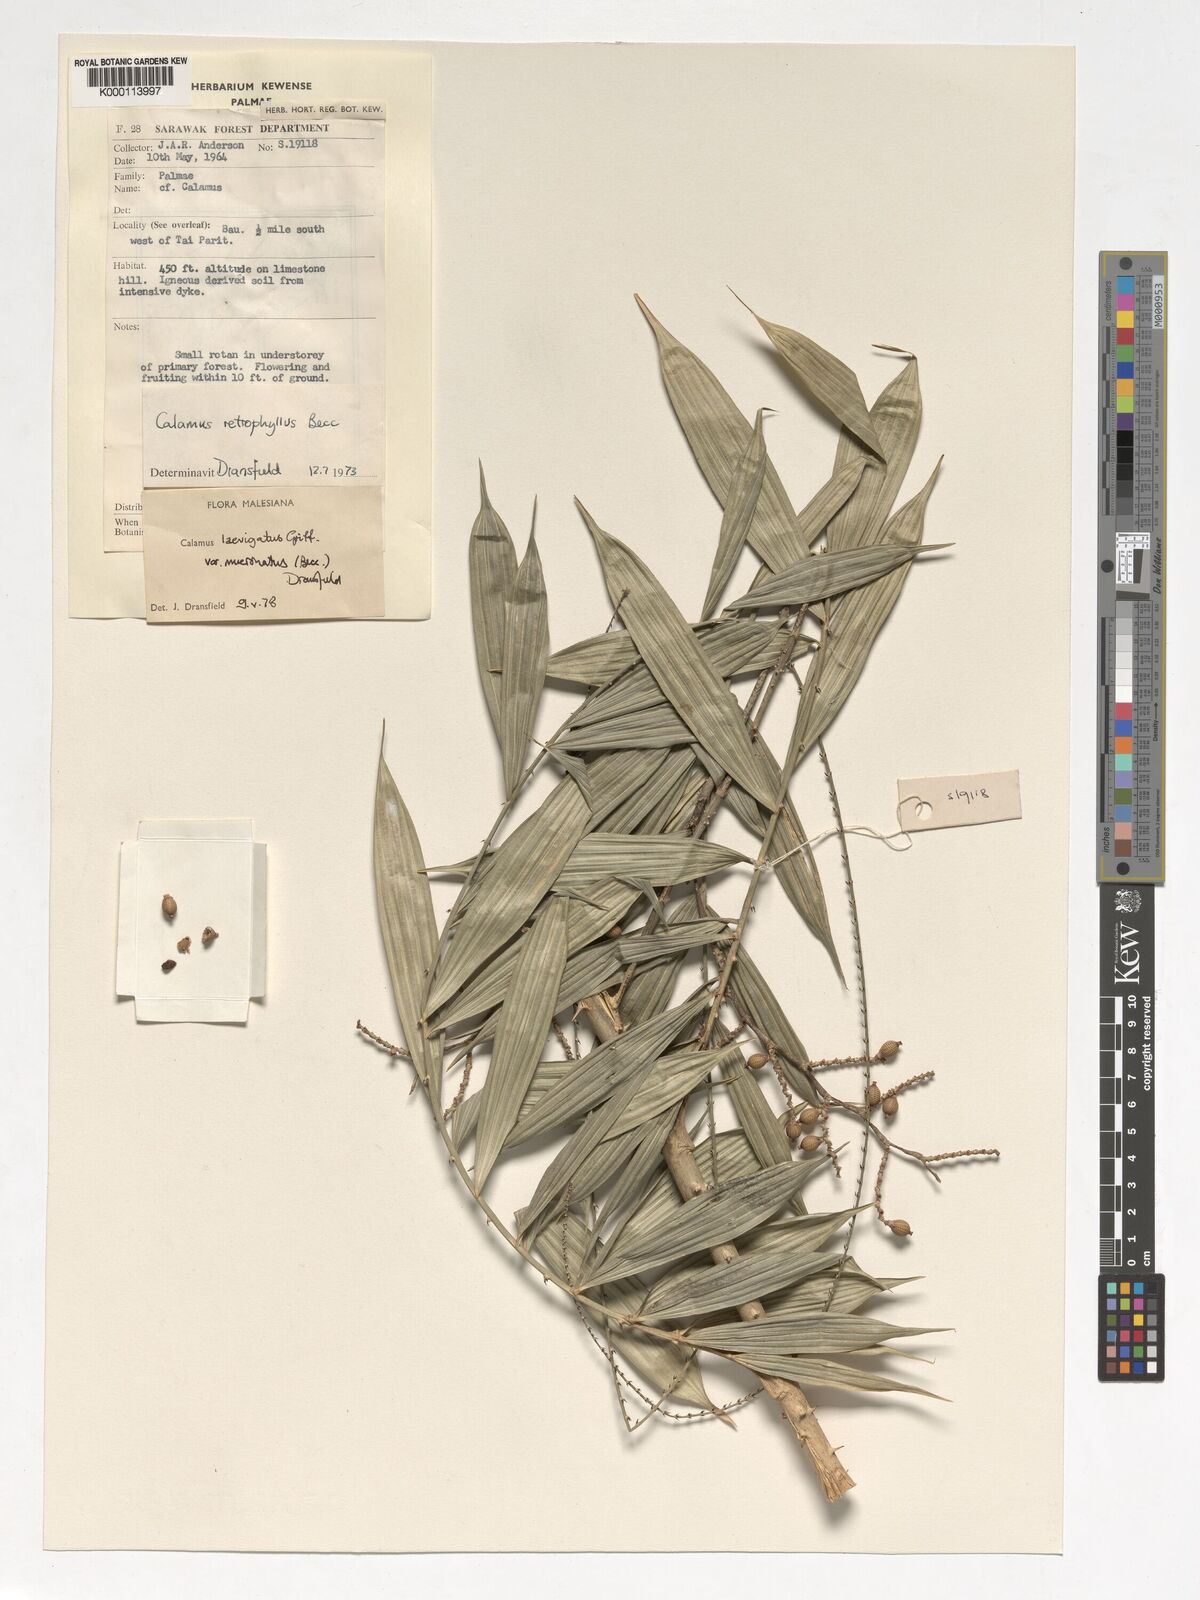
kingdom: Plantae
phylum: Tracheophyta
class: Liliopsida
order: Arecales
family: Arecaceae
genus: Calamus
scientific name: Calamus plicatus
